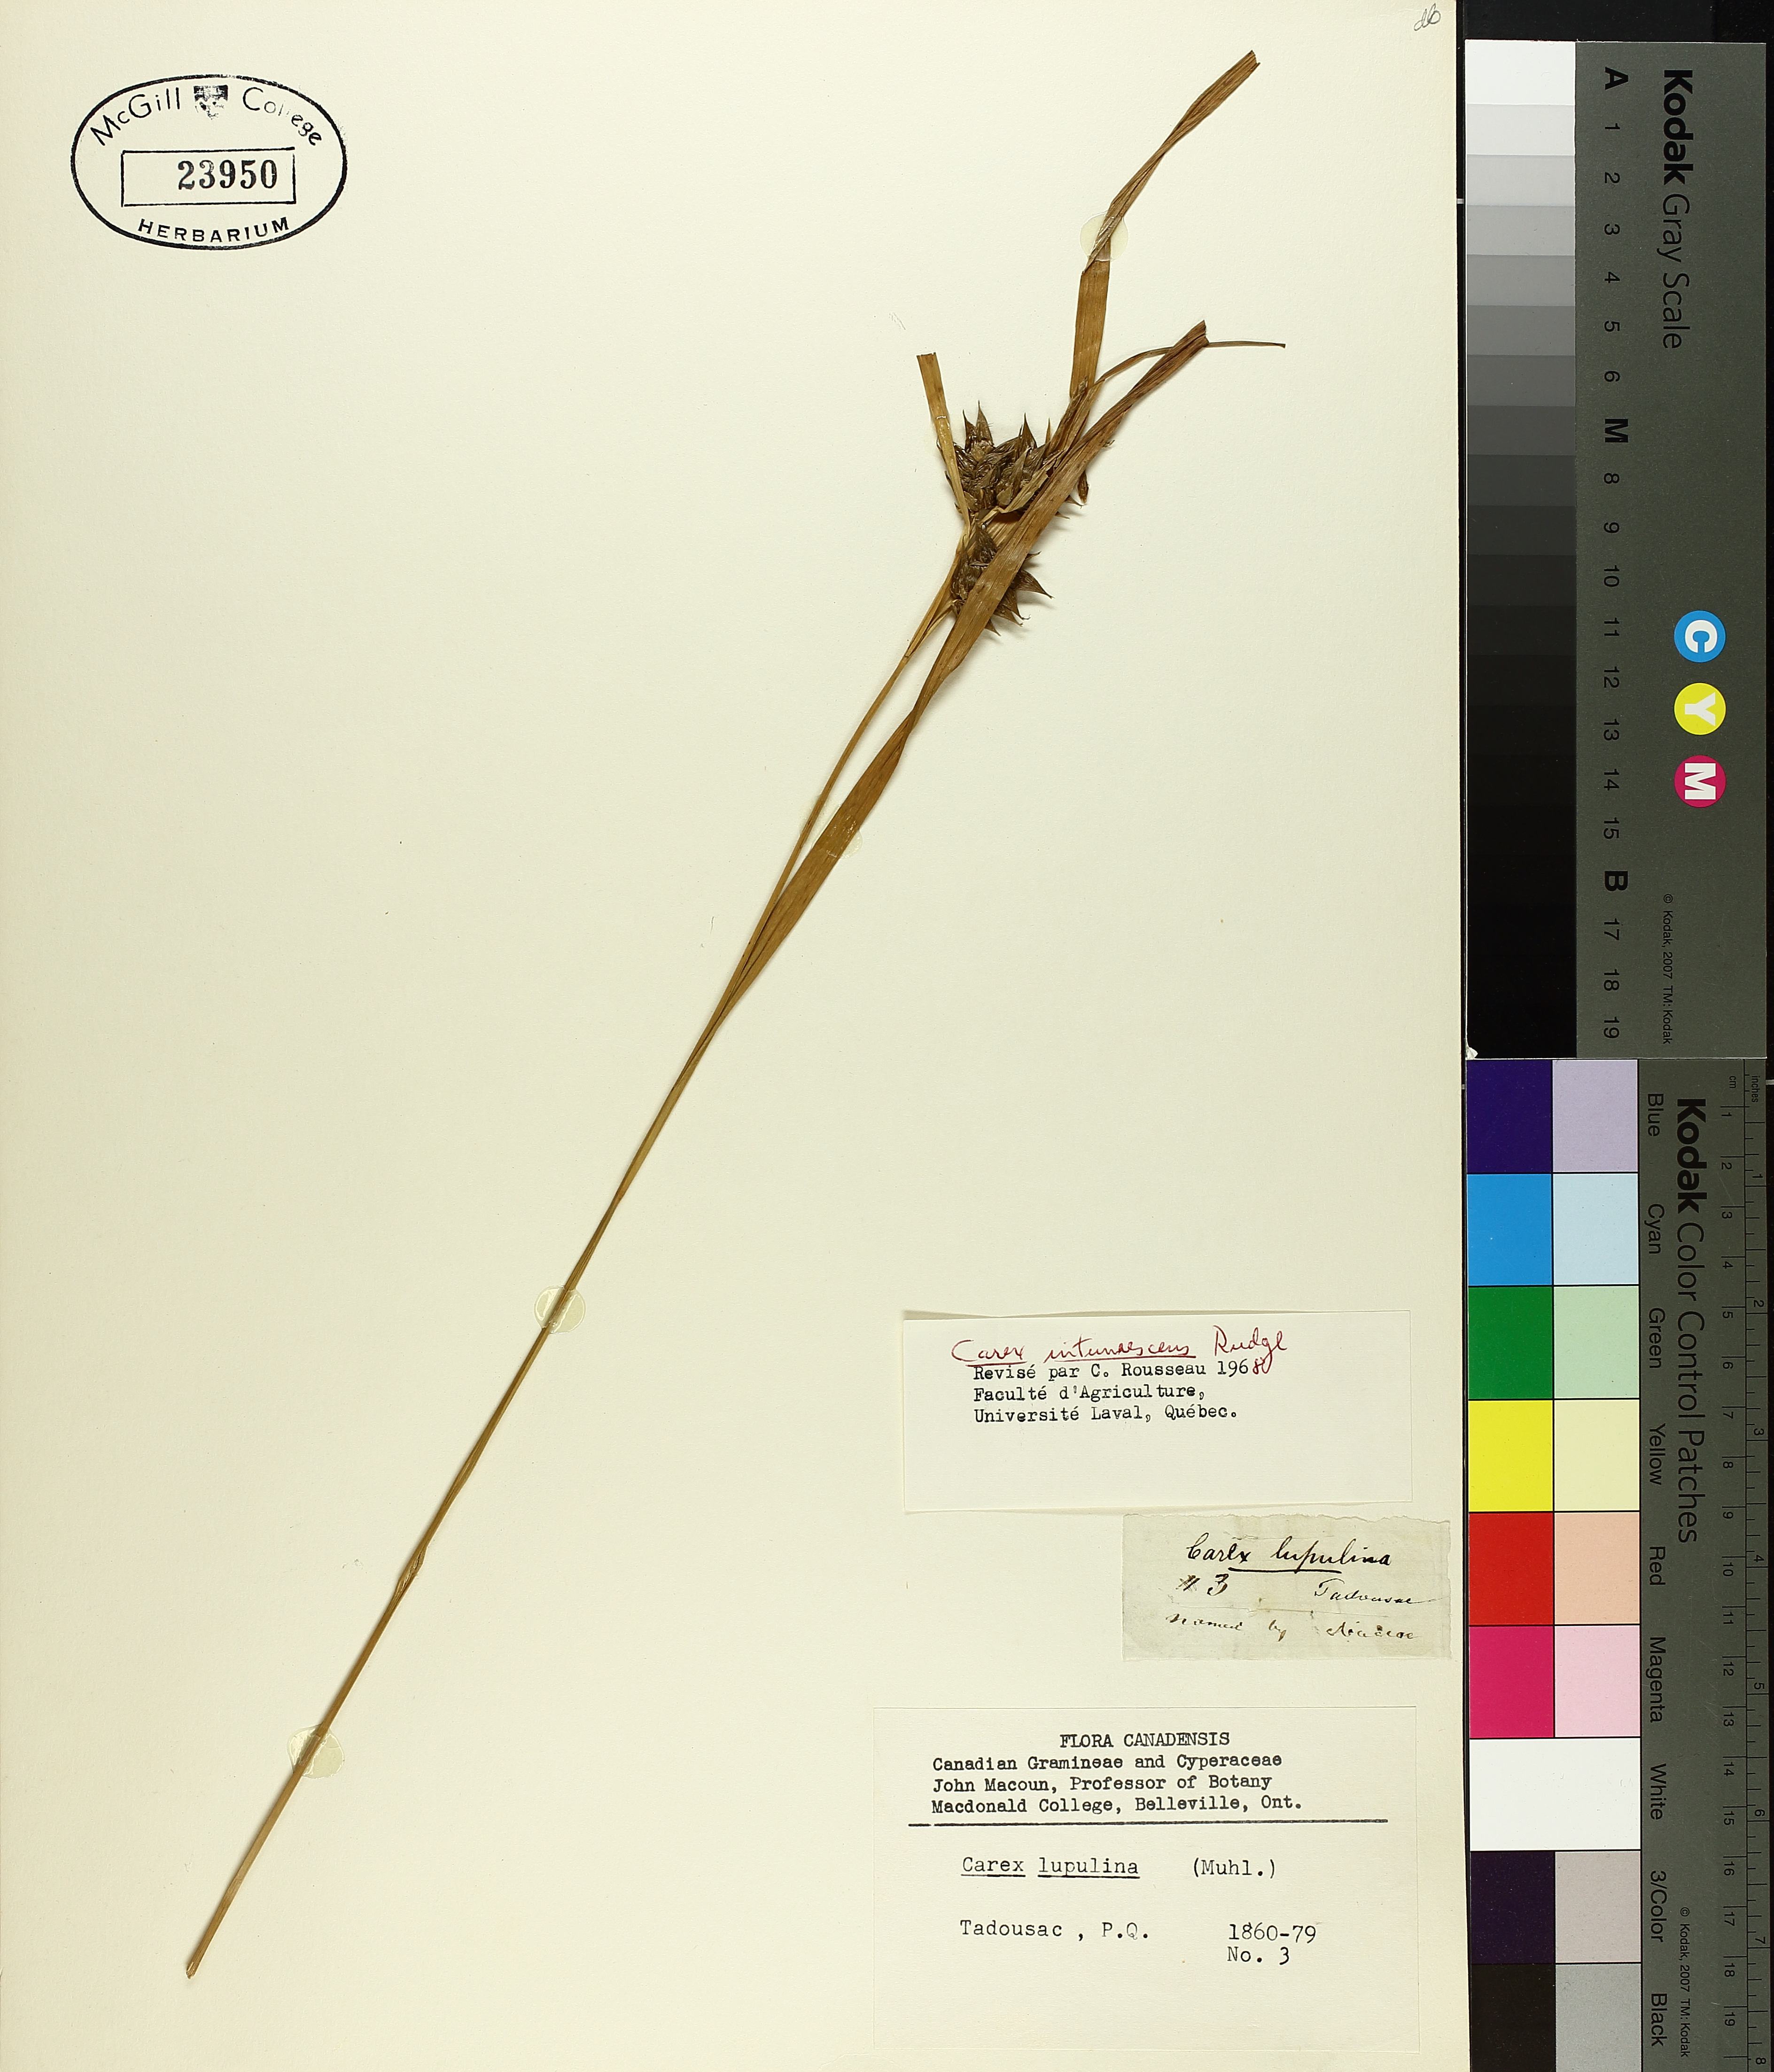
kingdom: Plantae
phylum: Tracheophyta
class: Liliopsida
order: Poales
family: Cyperaceae
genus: Carex
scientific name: Carex intumescens
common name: Greater bladder sedge
